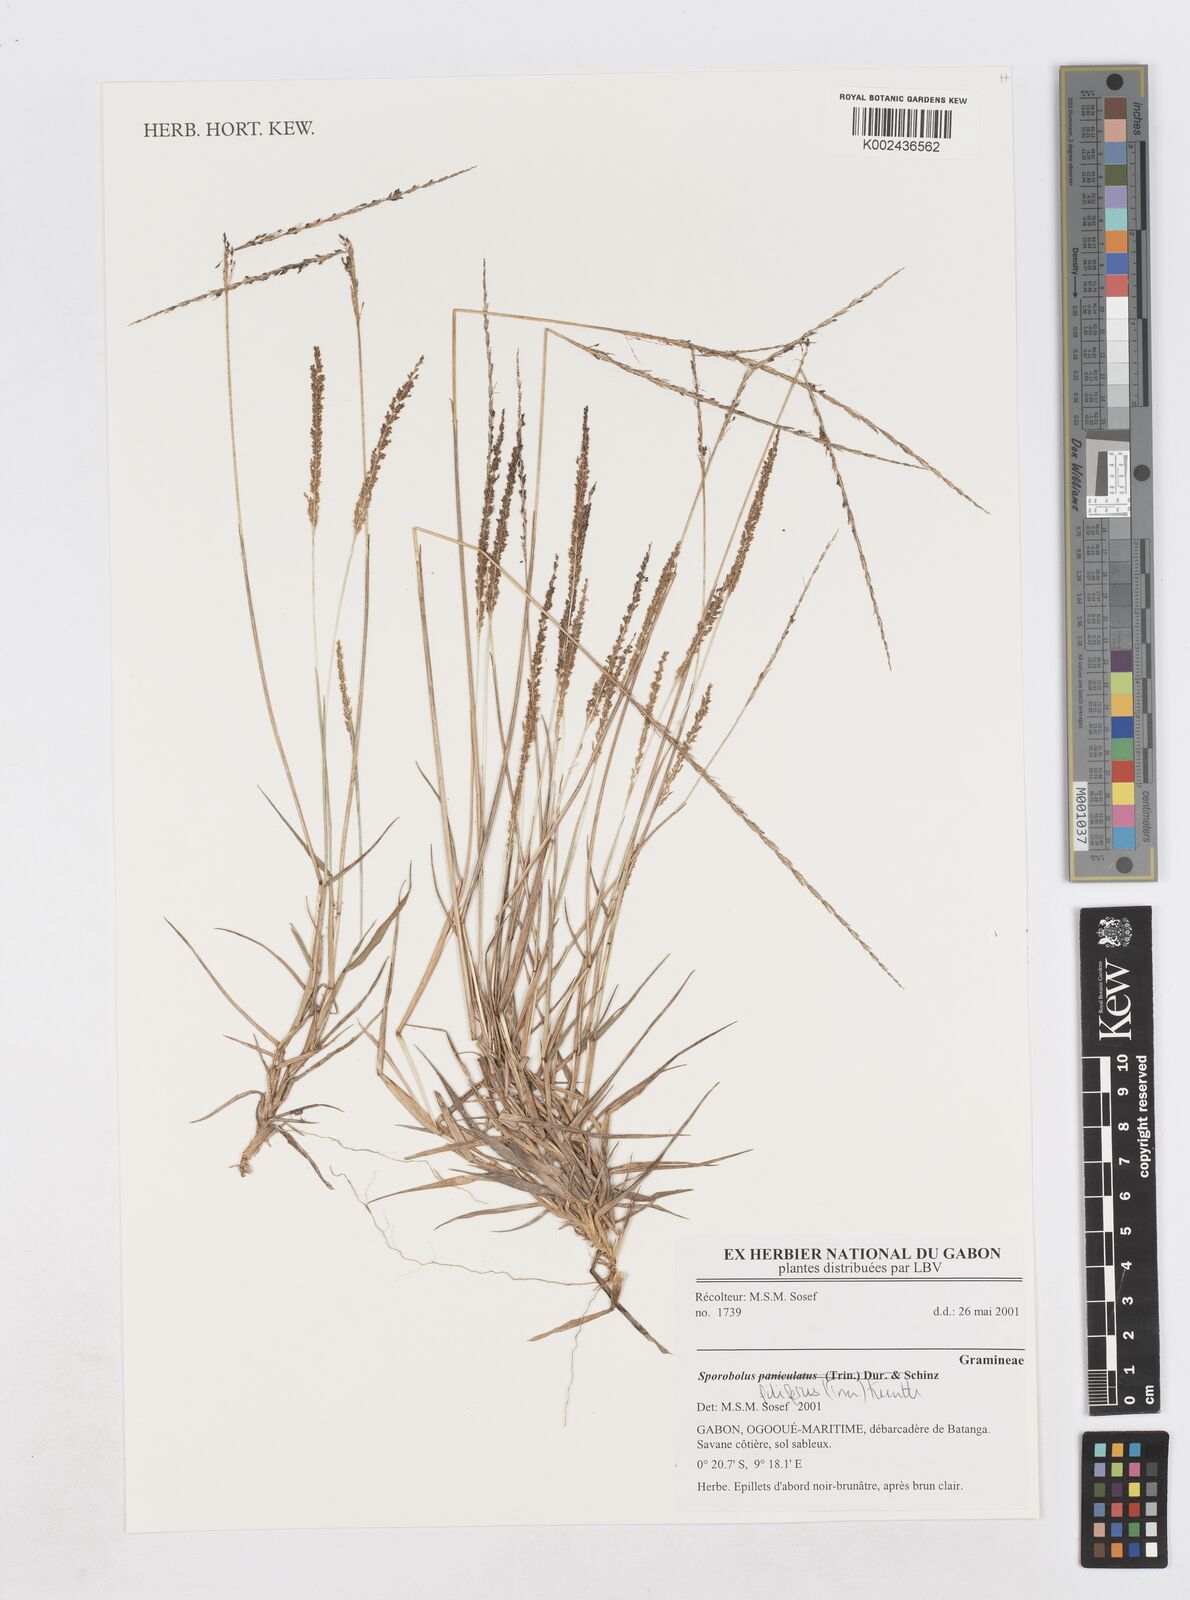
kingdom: Plantae
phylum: Tracheophyta
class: Liliopsida
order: Poales
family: Poaceae
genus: Sporobolus
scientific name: Sporobolus pilifer
